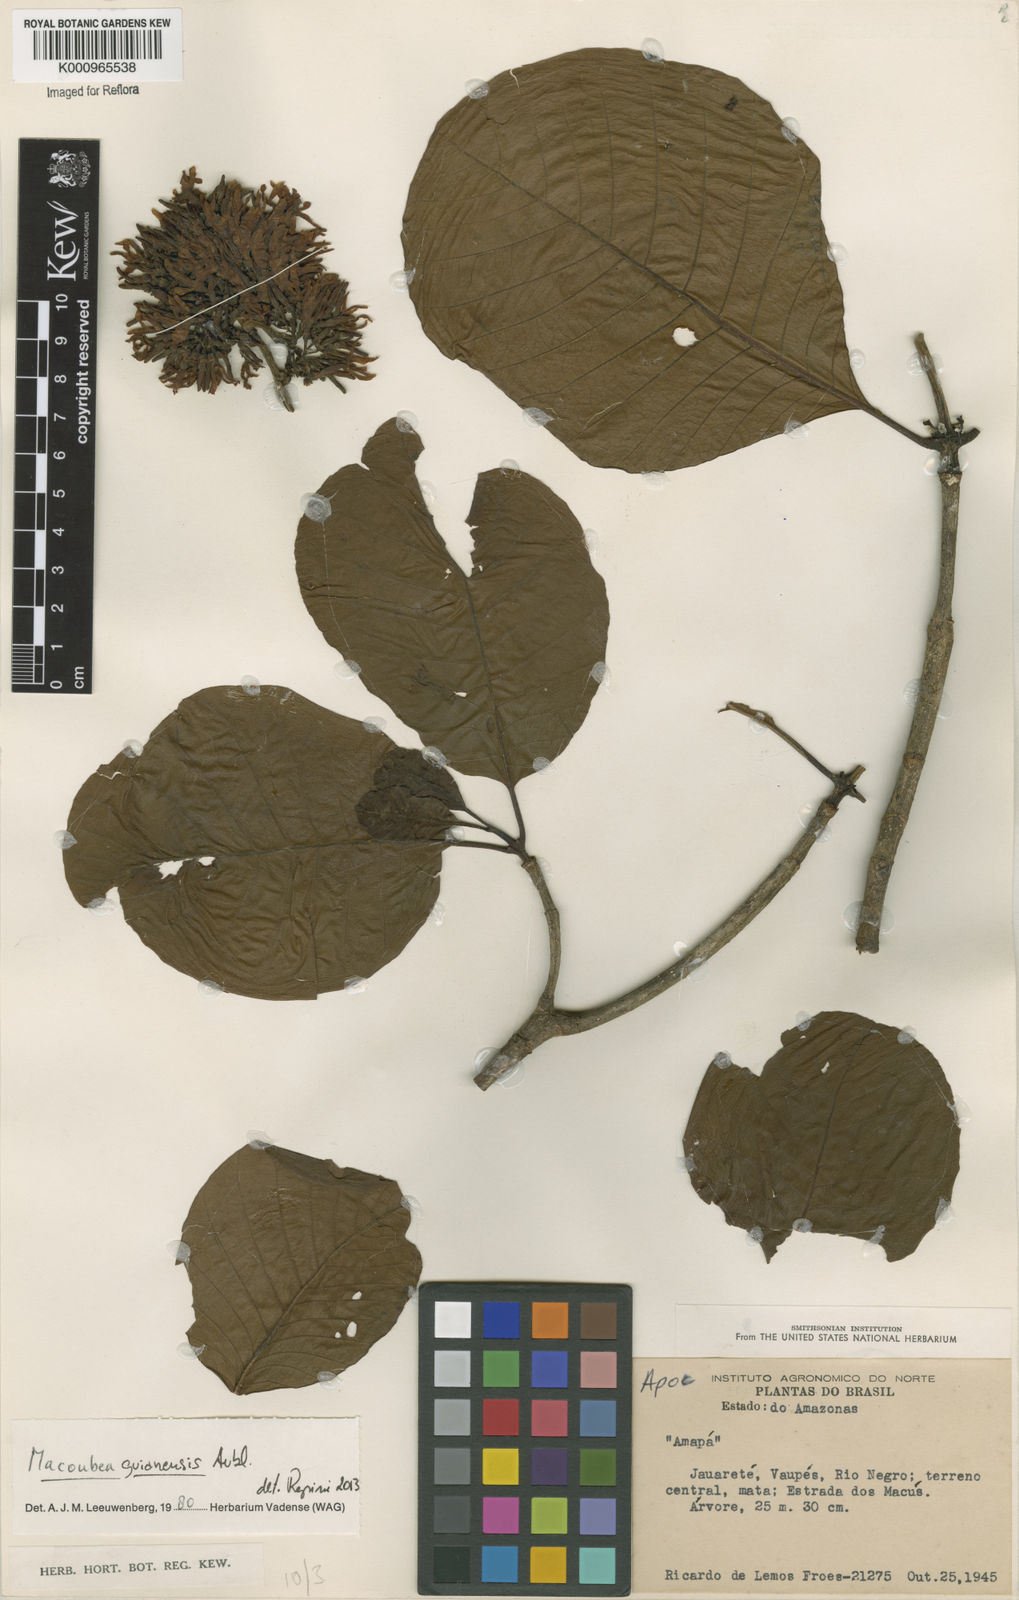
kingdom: Plantae
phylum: Tracheophyta
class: Magnoliopsida
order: Gentianales
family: Apocynaceae
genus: Macoubea
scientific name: Macoubea guianensis
